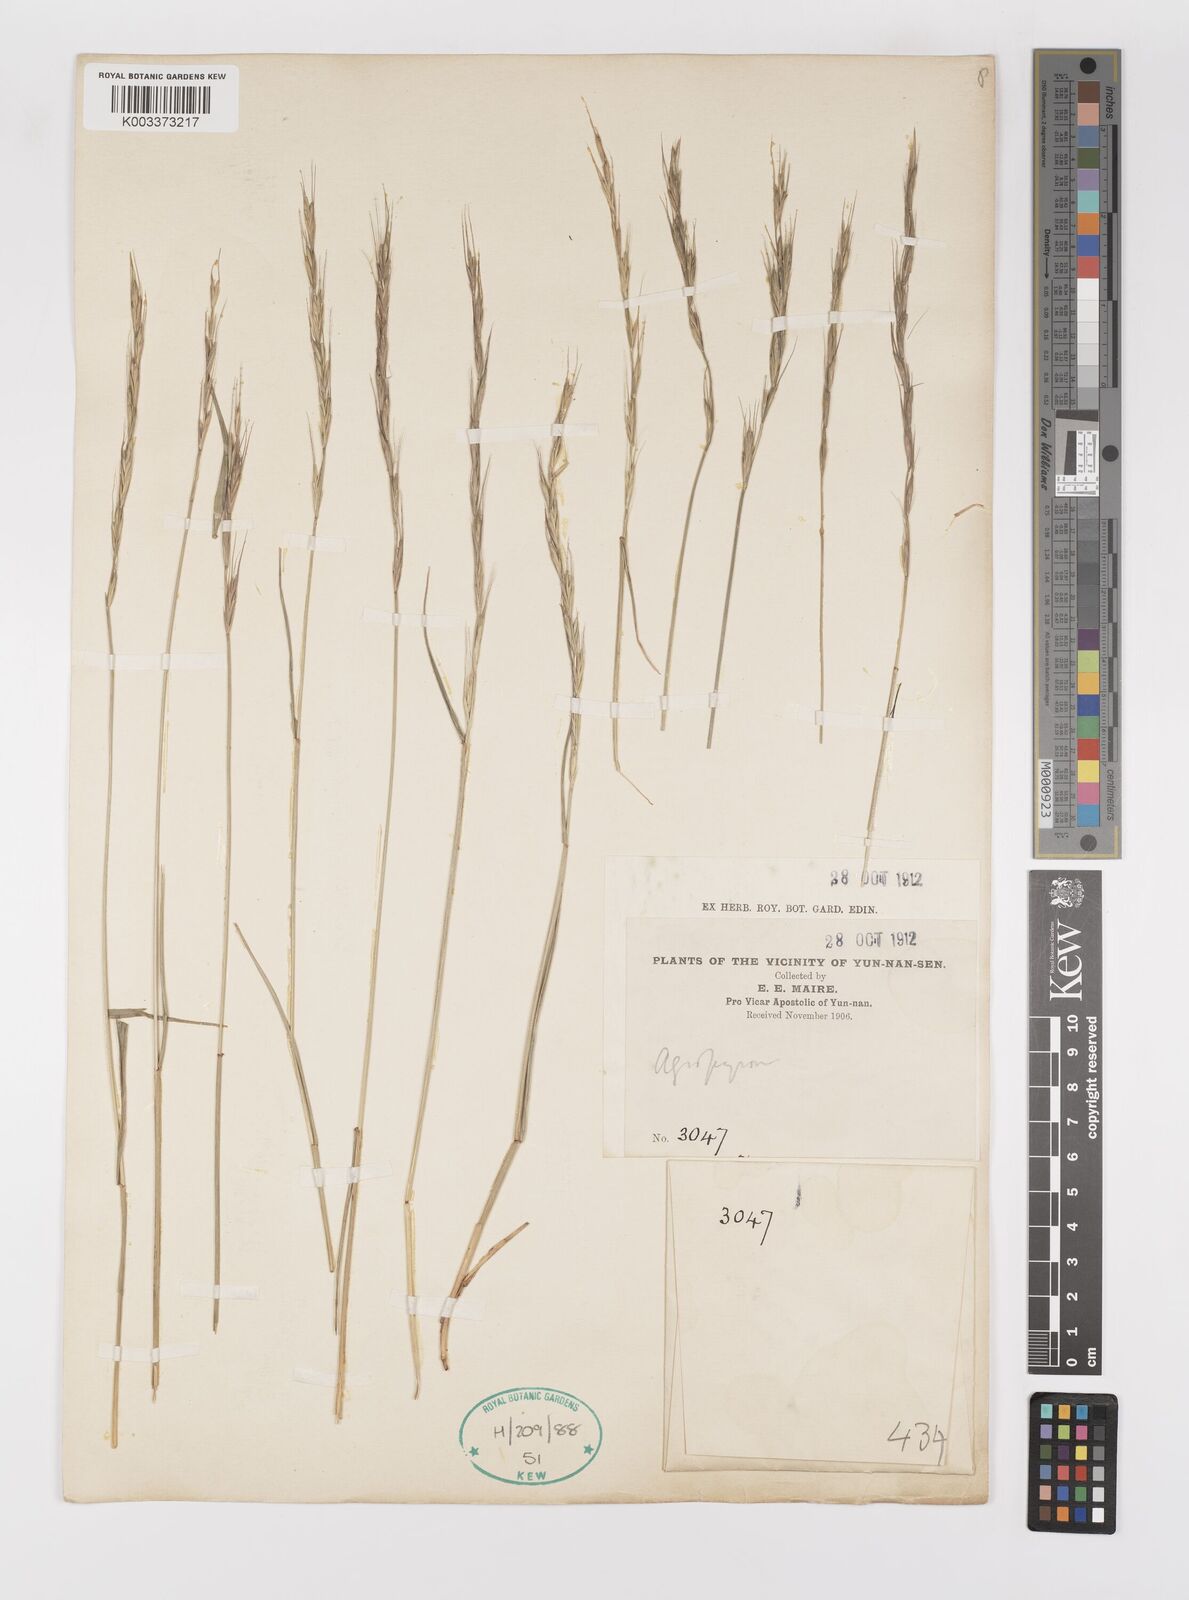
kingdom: Plantae
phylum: Tracheophyta
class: Liliopsida
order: Poales
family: Poaceae
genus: Elymus
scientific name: Elymus
